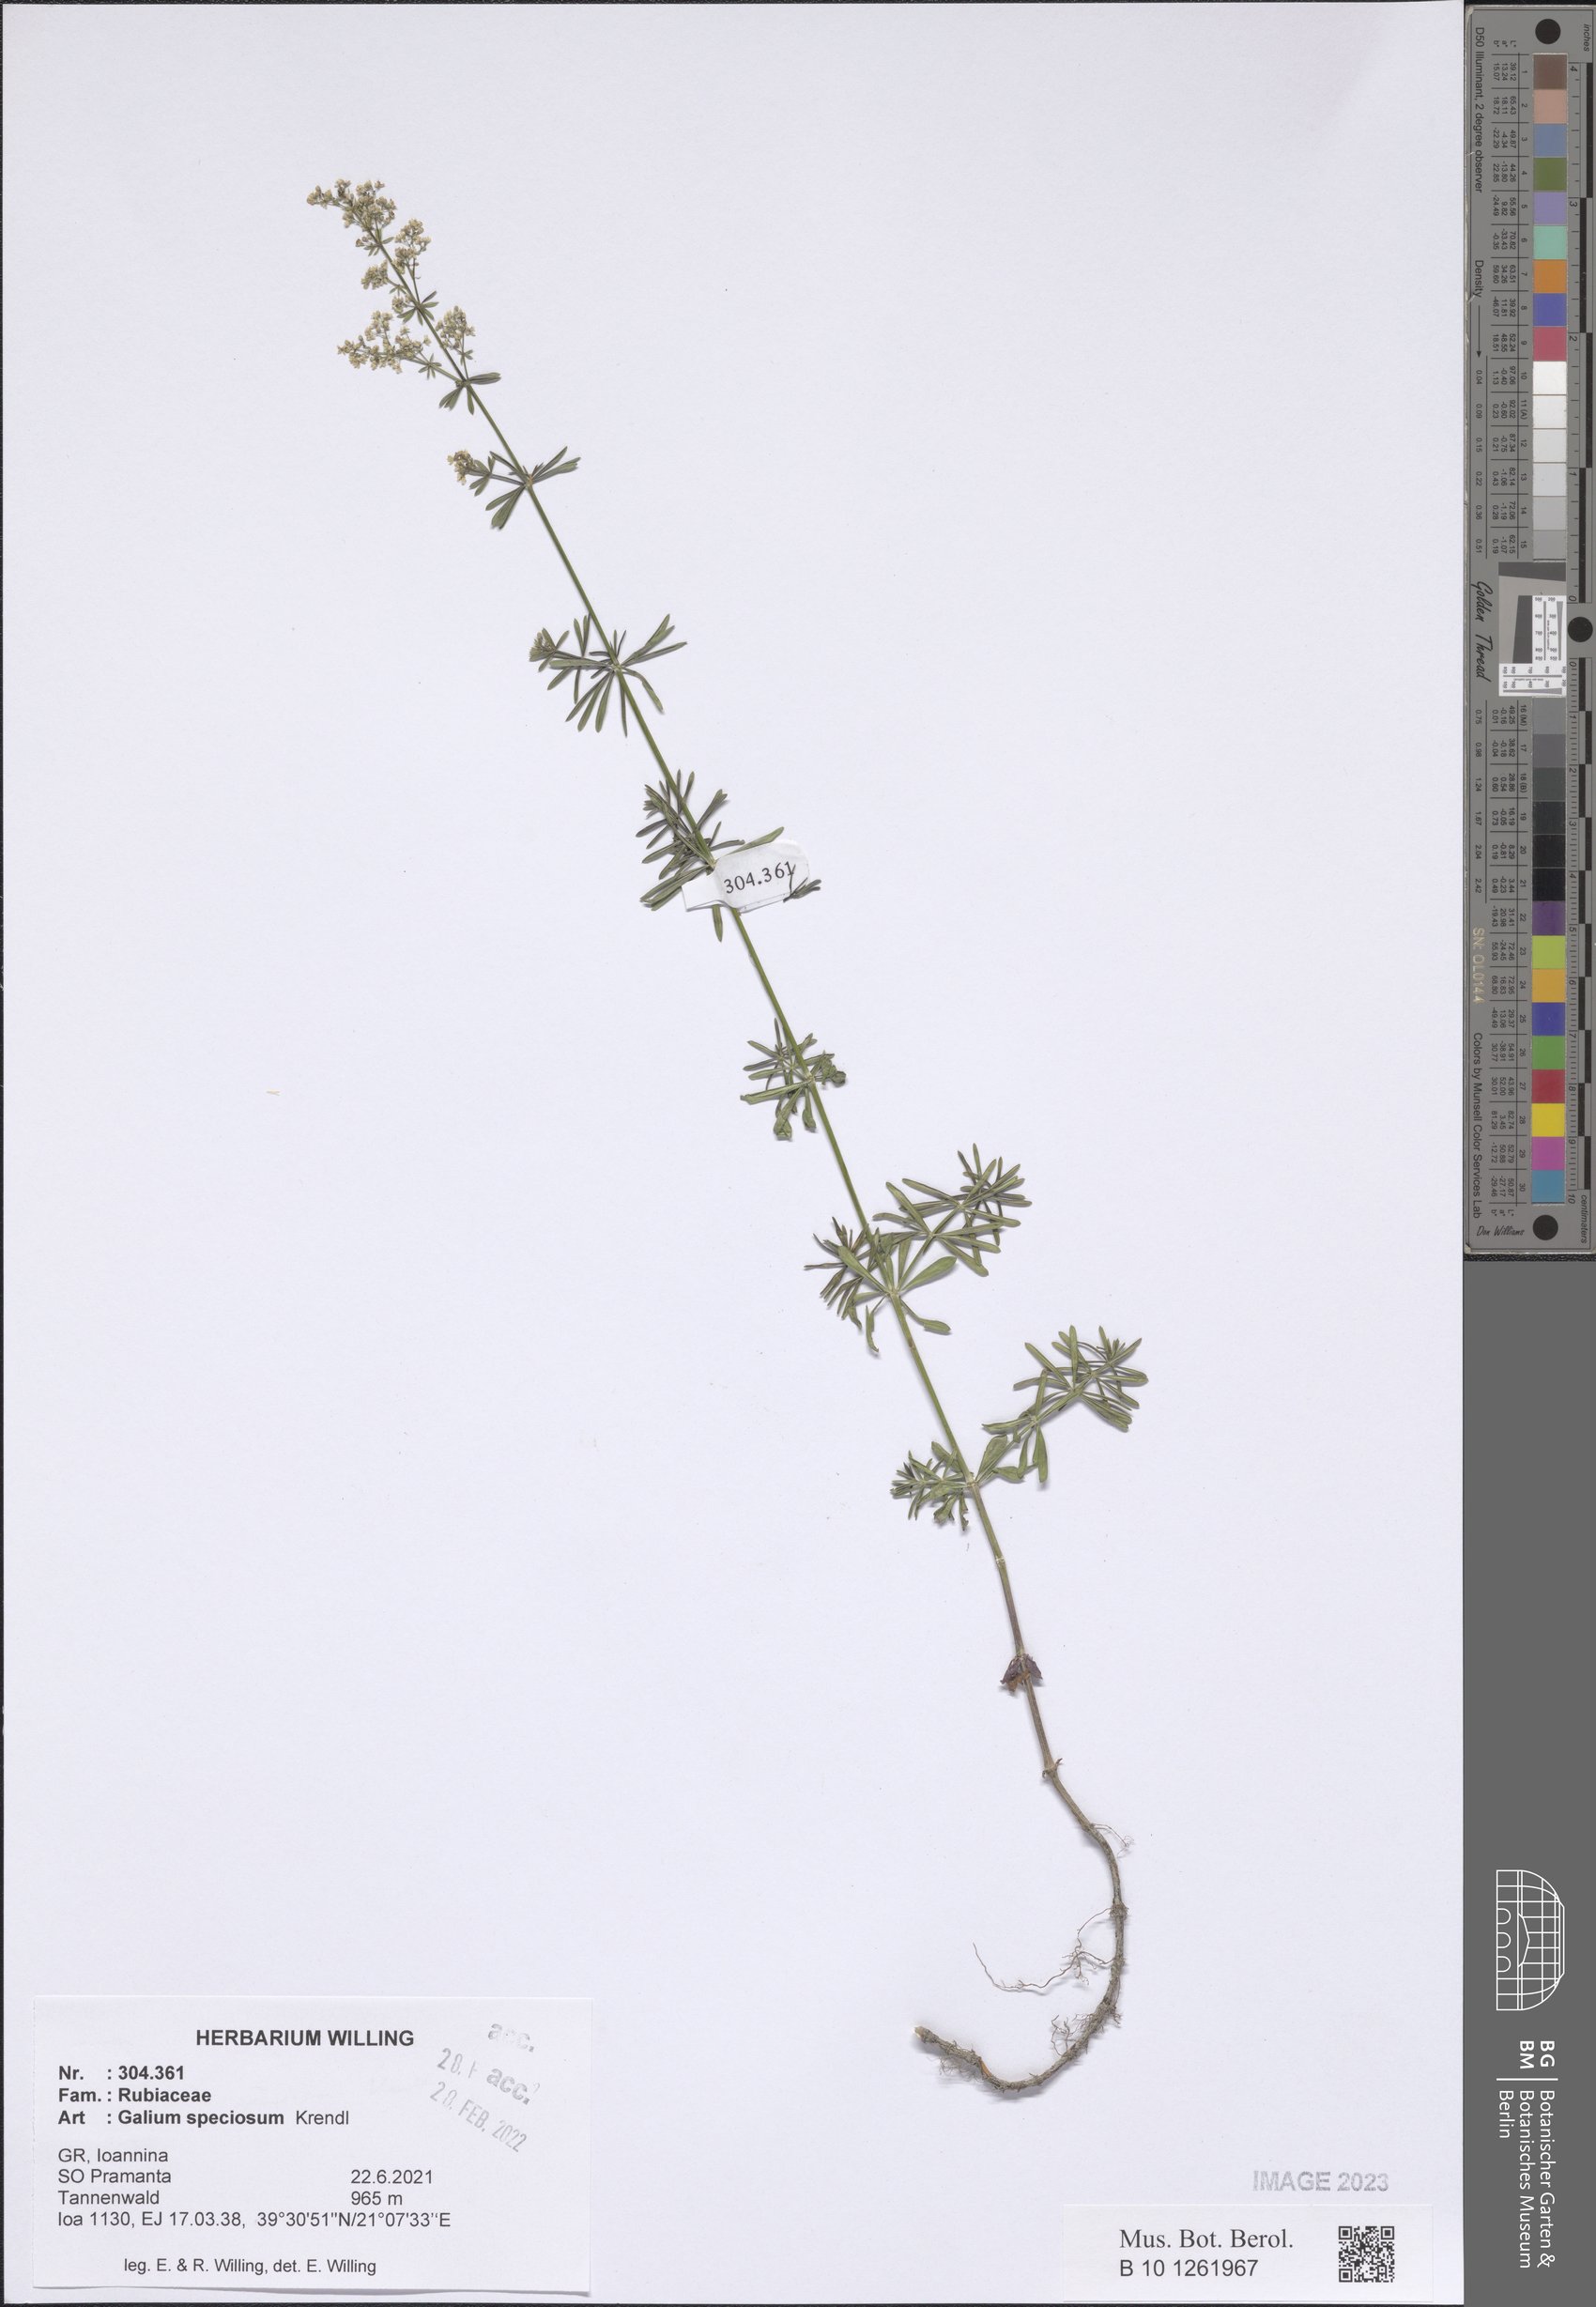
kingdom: Plantae
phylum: Tracheophyta
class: Magnoliopsida
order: Gentianales
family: Rubiaceae
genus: Galium
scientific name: Galium speciosum
